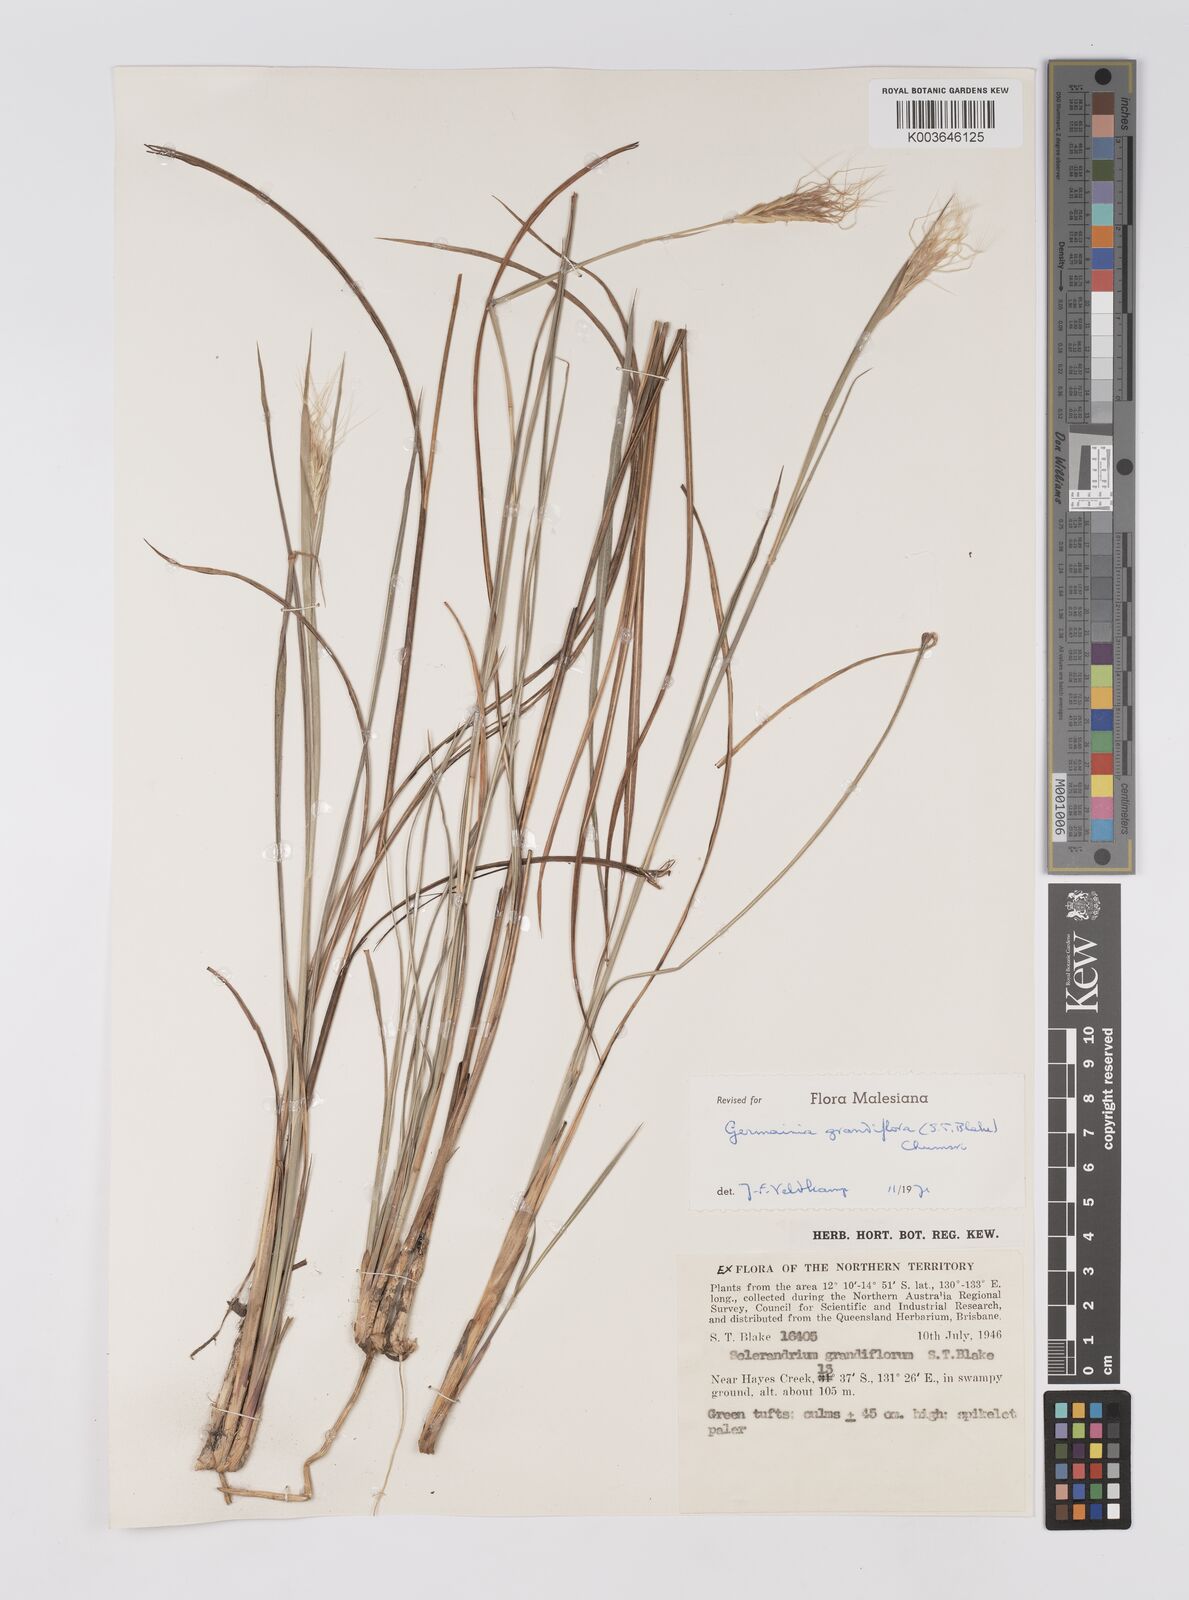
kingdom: Plantae
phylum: Tracheophyta
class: Liliopsida
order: Poales
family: Poaceae
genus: Germainia
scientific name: Germainia grandiflora
